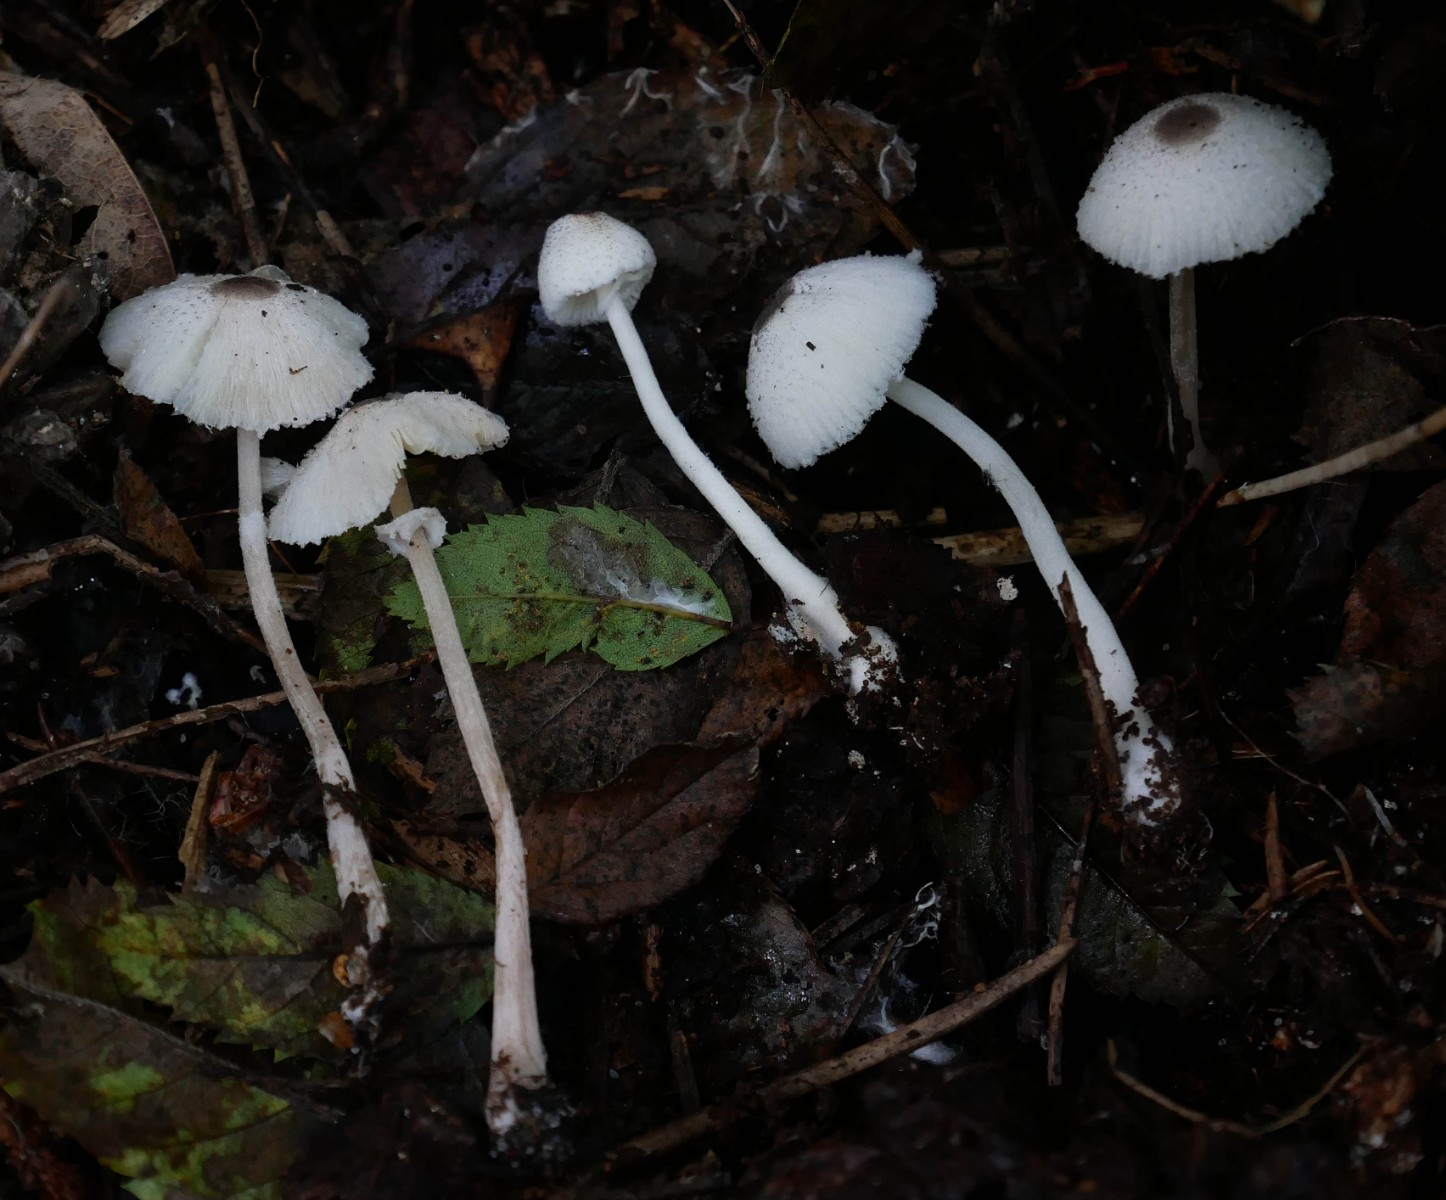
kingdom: Fungi
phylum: Basidiomycota
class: Agaricomycetes
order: Agaricales
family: Agaricaceae
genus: Leucocoprinus
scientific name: Leucocoprinus brebissonii
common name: gråsort silkehat
